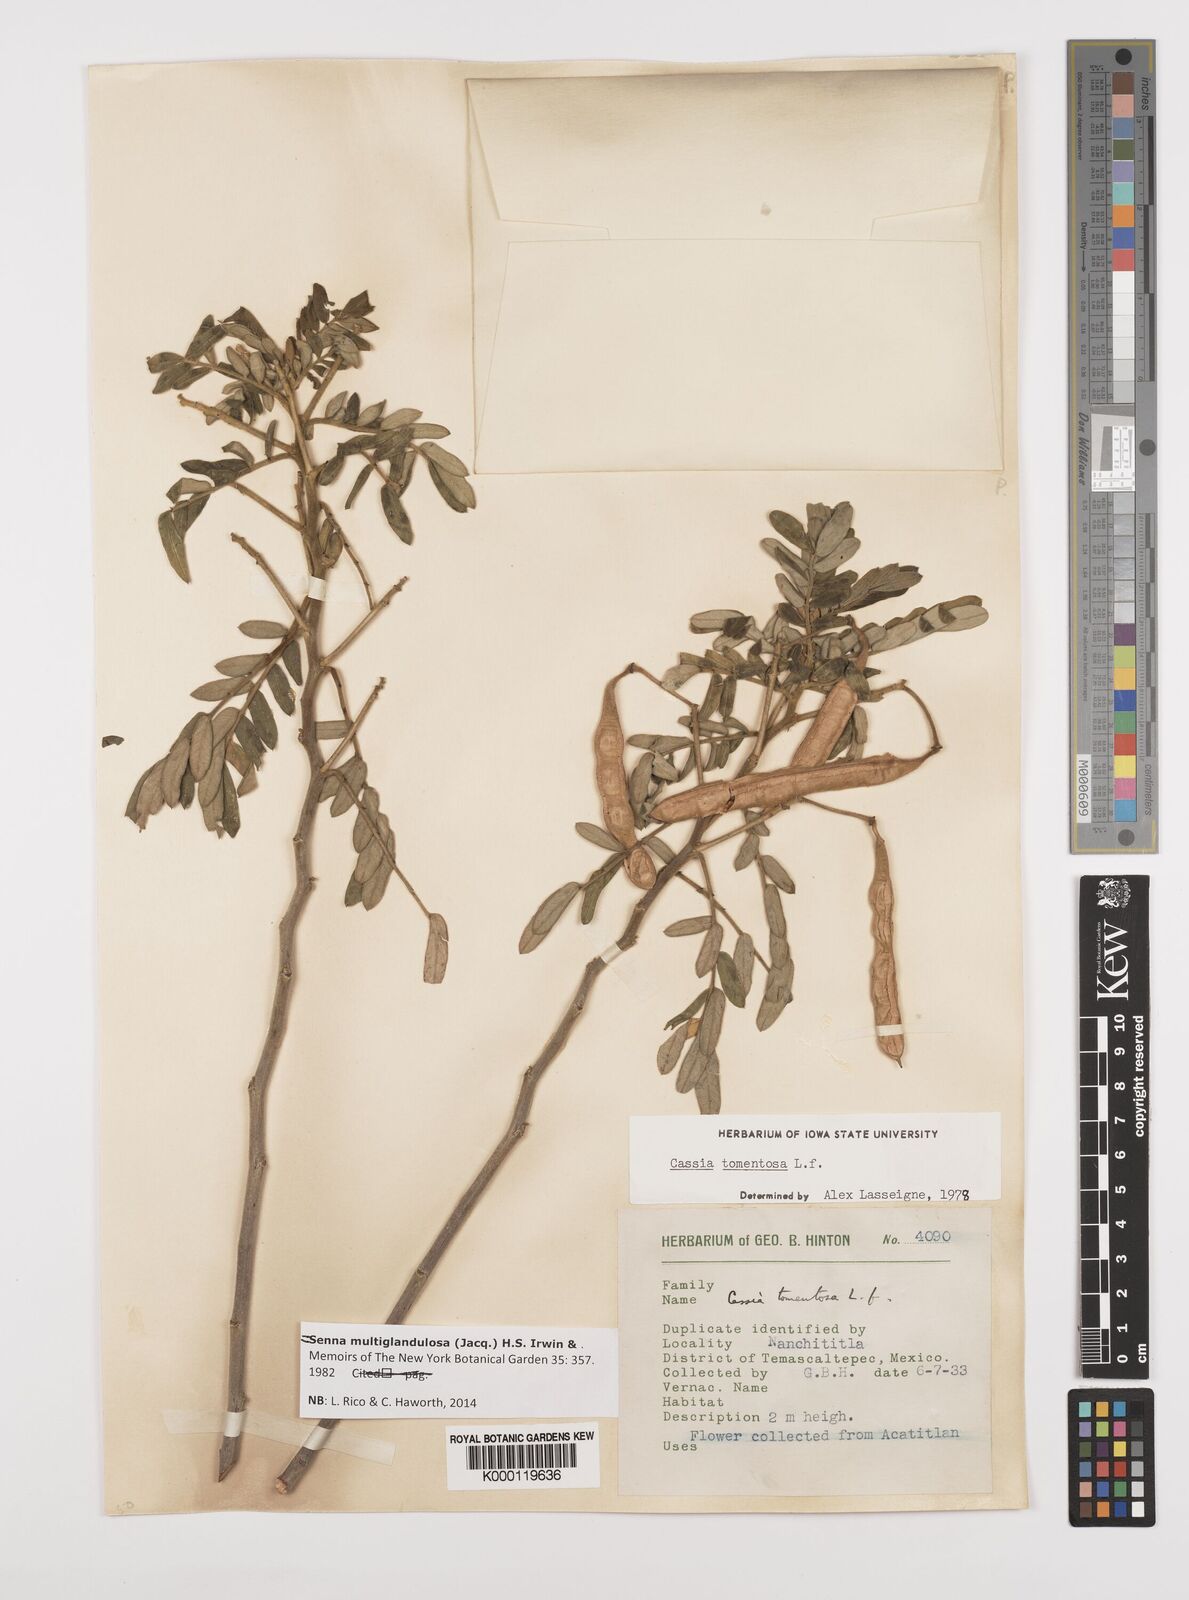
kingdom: Plantae
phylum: Tracheophyta
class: Magnoliopsida
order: Fabales
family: Fabaceae
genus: Senna
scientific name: Senna multiglandulosa
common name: Glandular senna
